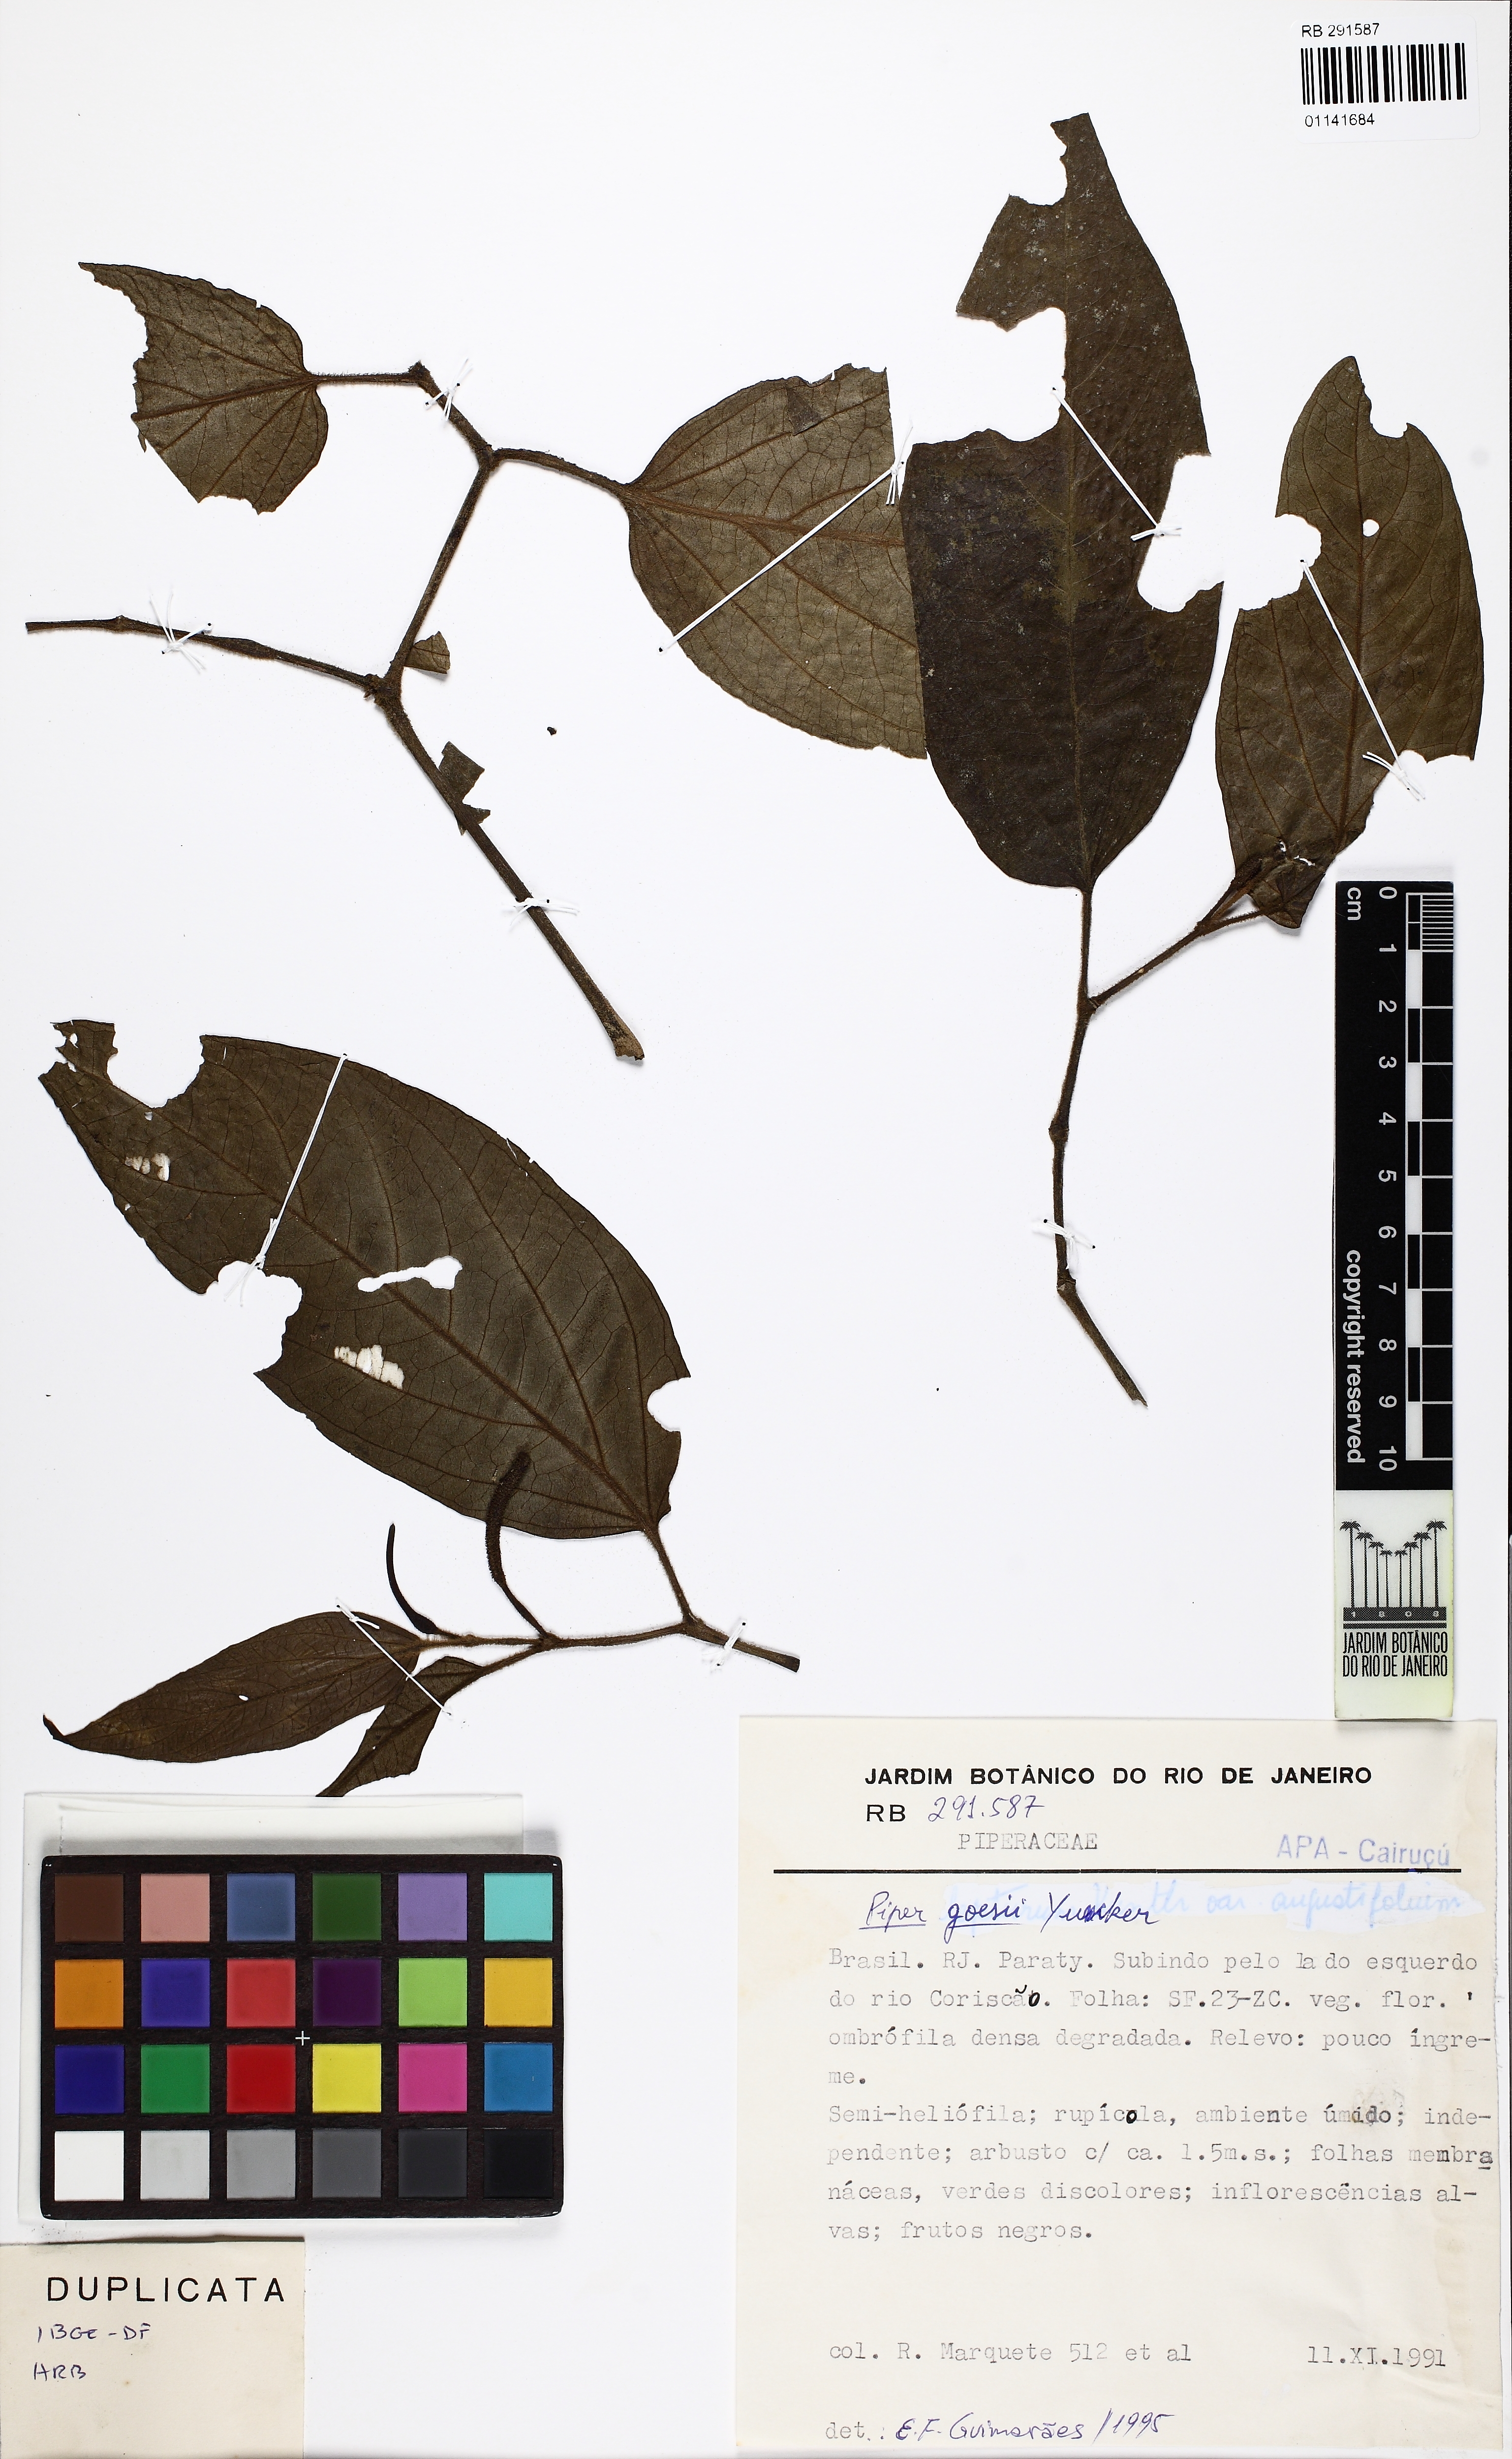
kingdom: Plantae
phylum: Tracheophyta
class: Magnoliopsida
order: Piperales
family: Piperaceae
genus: Piper
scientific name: Piper goesii
